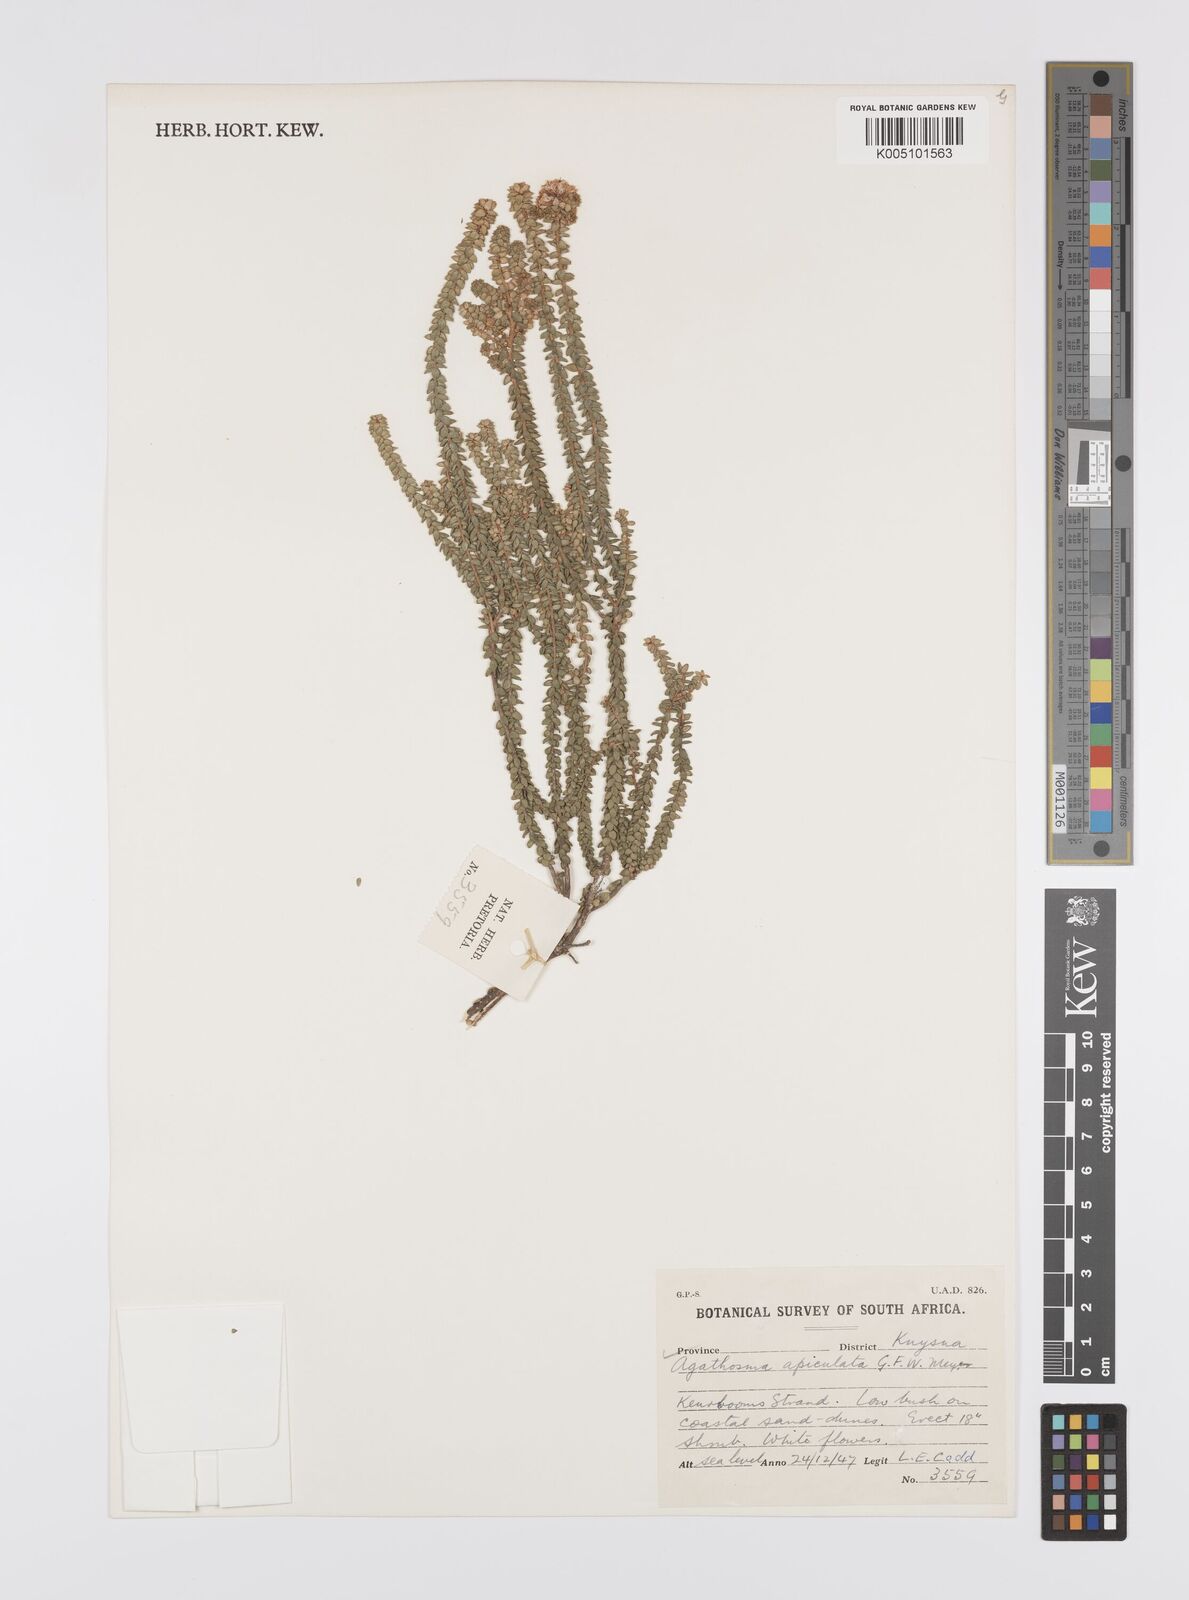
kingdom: Plantae
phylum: Tracheophyta
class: Magnoliopsida
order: Sapindales
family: Rutaceae
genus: Agathosma
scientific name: Agathosma
